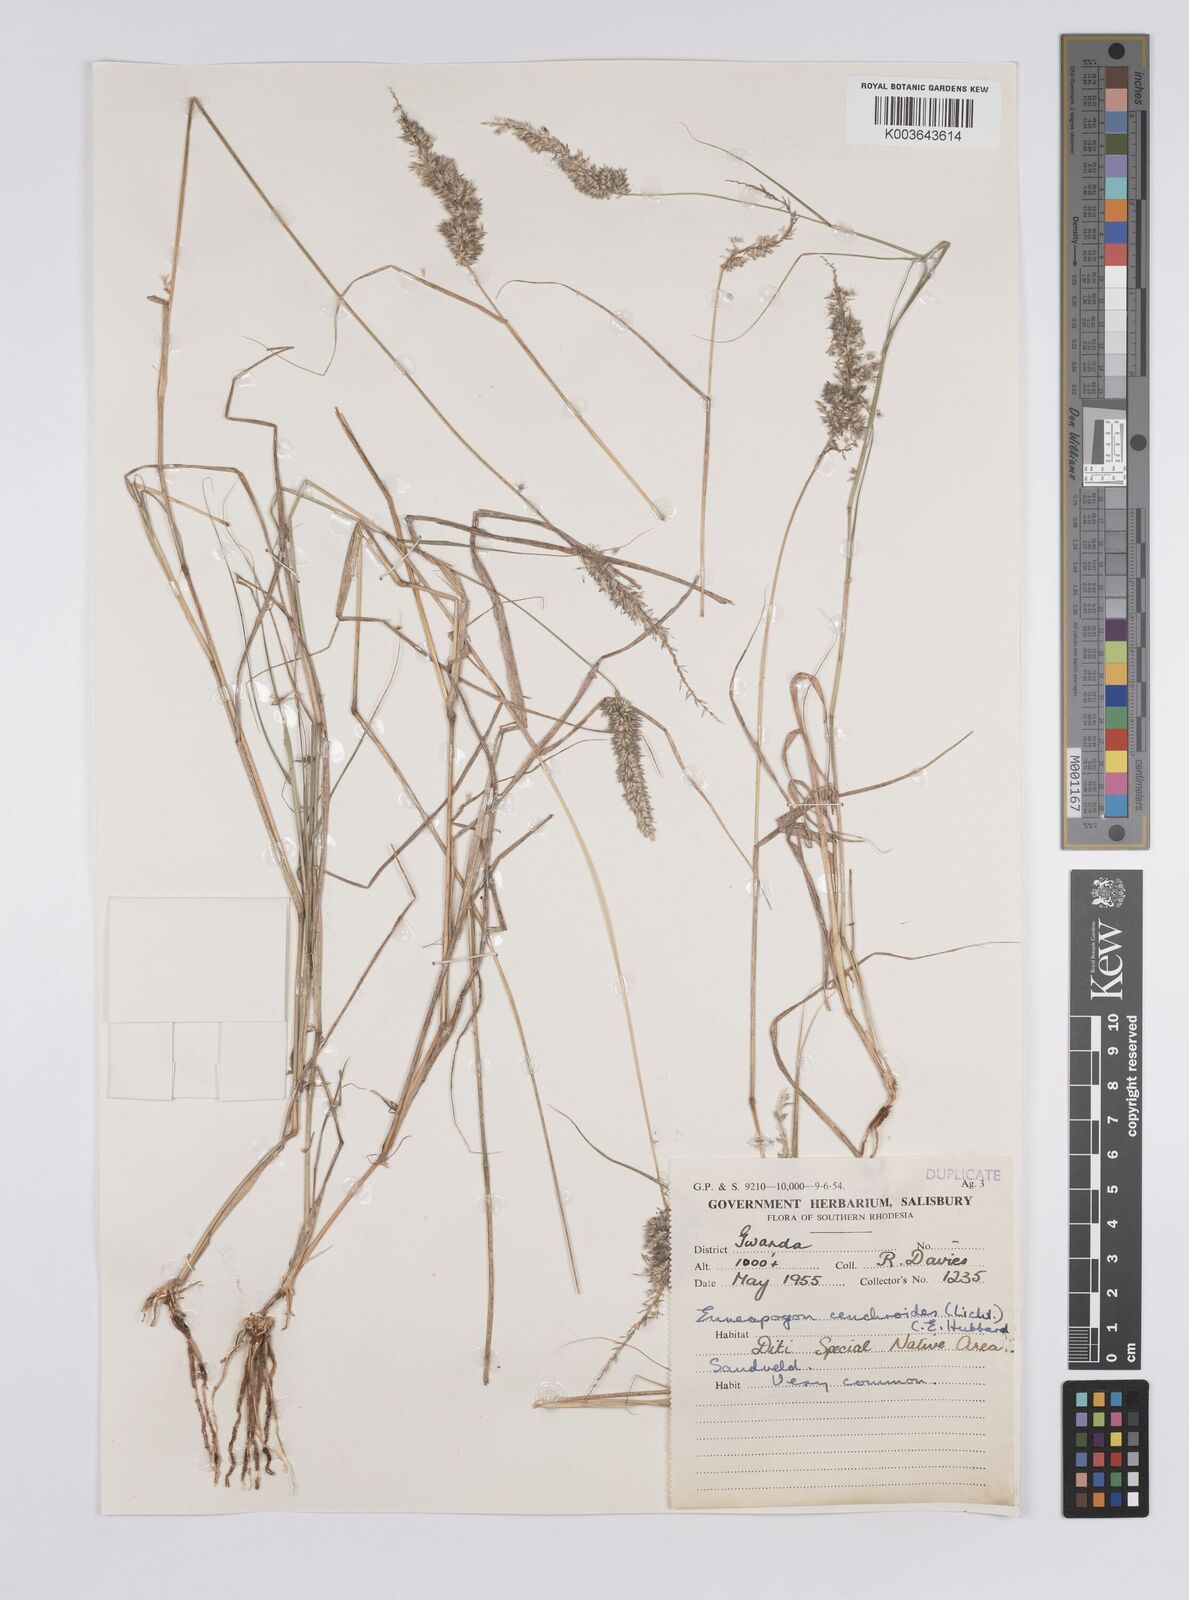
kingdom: Plantae
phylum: Tracheophyta
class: Liliopsida
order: Poales
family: Poaceae
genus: Enneapogon
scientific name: Enneapogon cenchroides
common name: Soft feather pappusgrass
